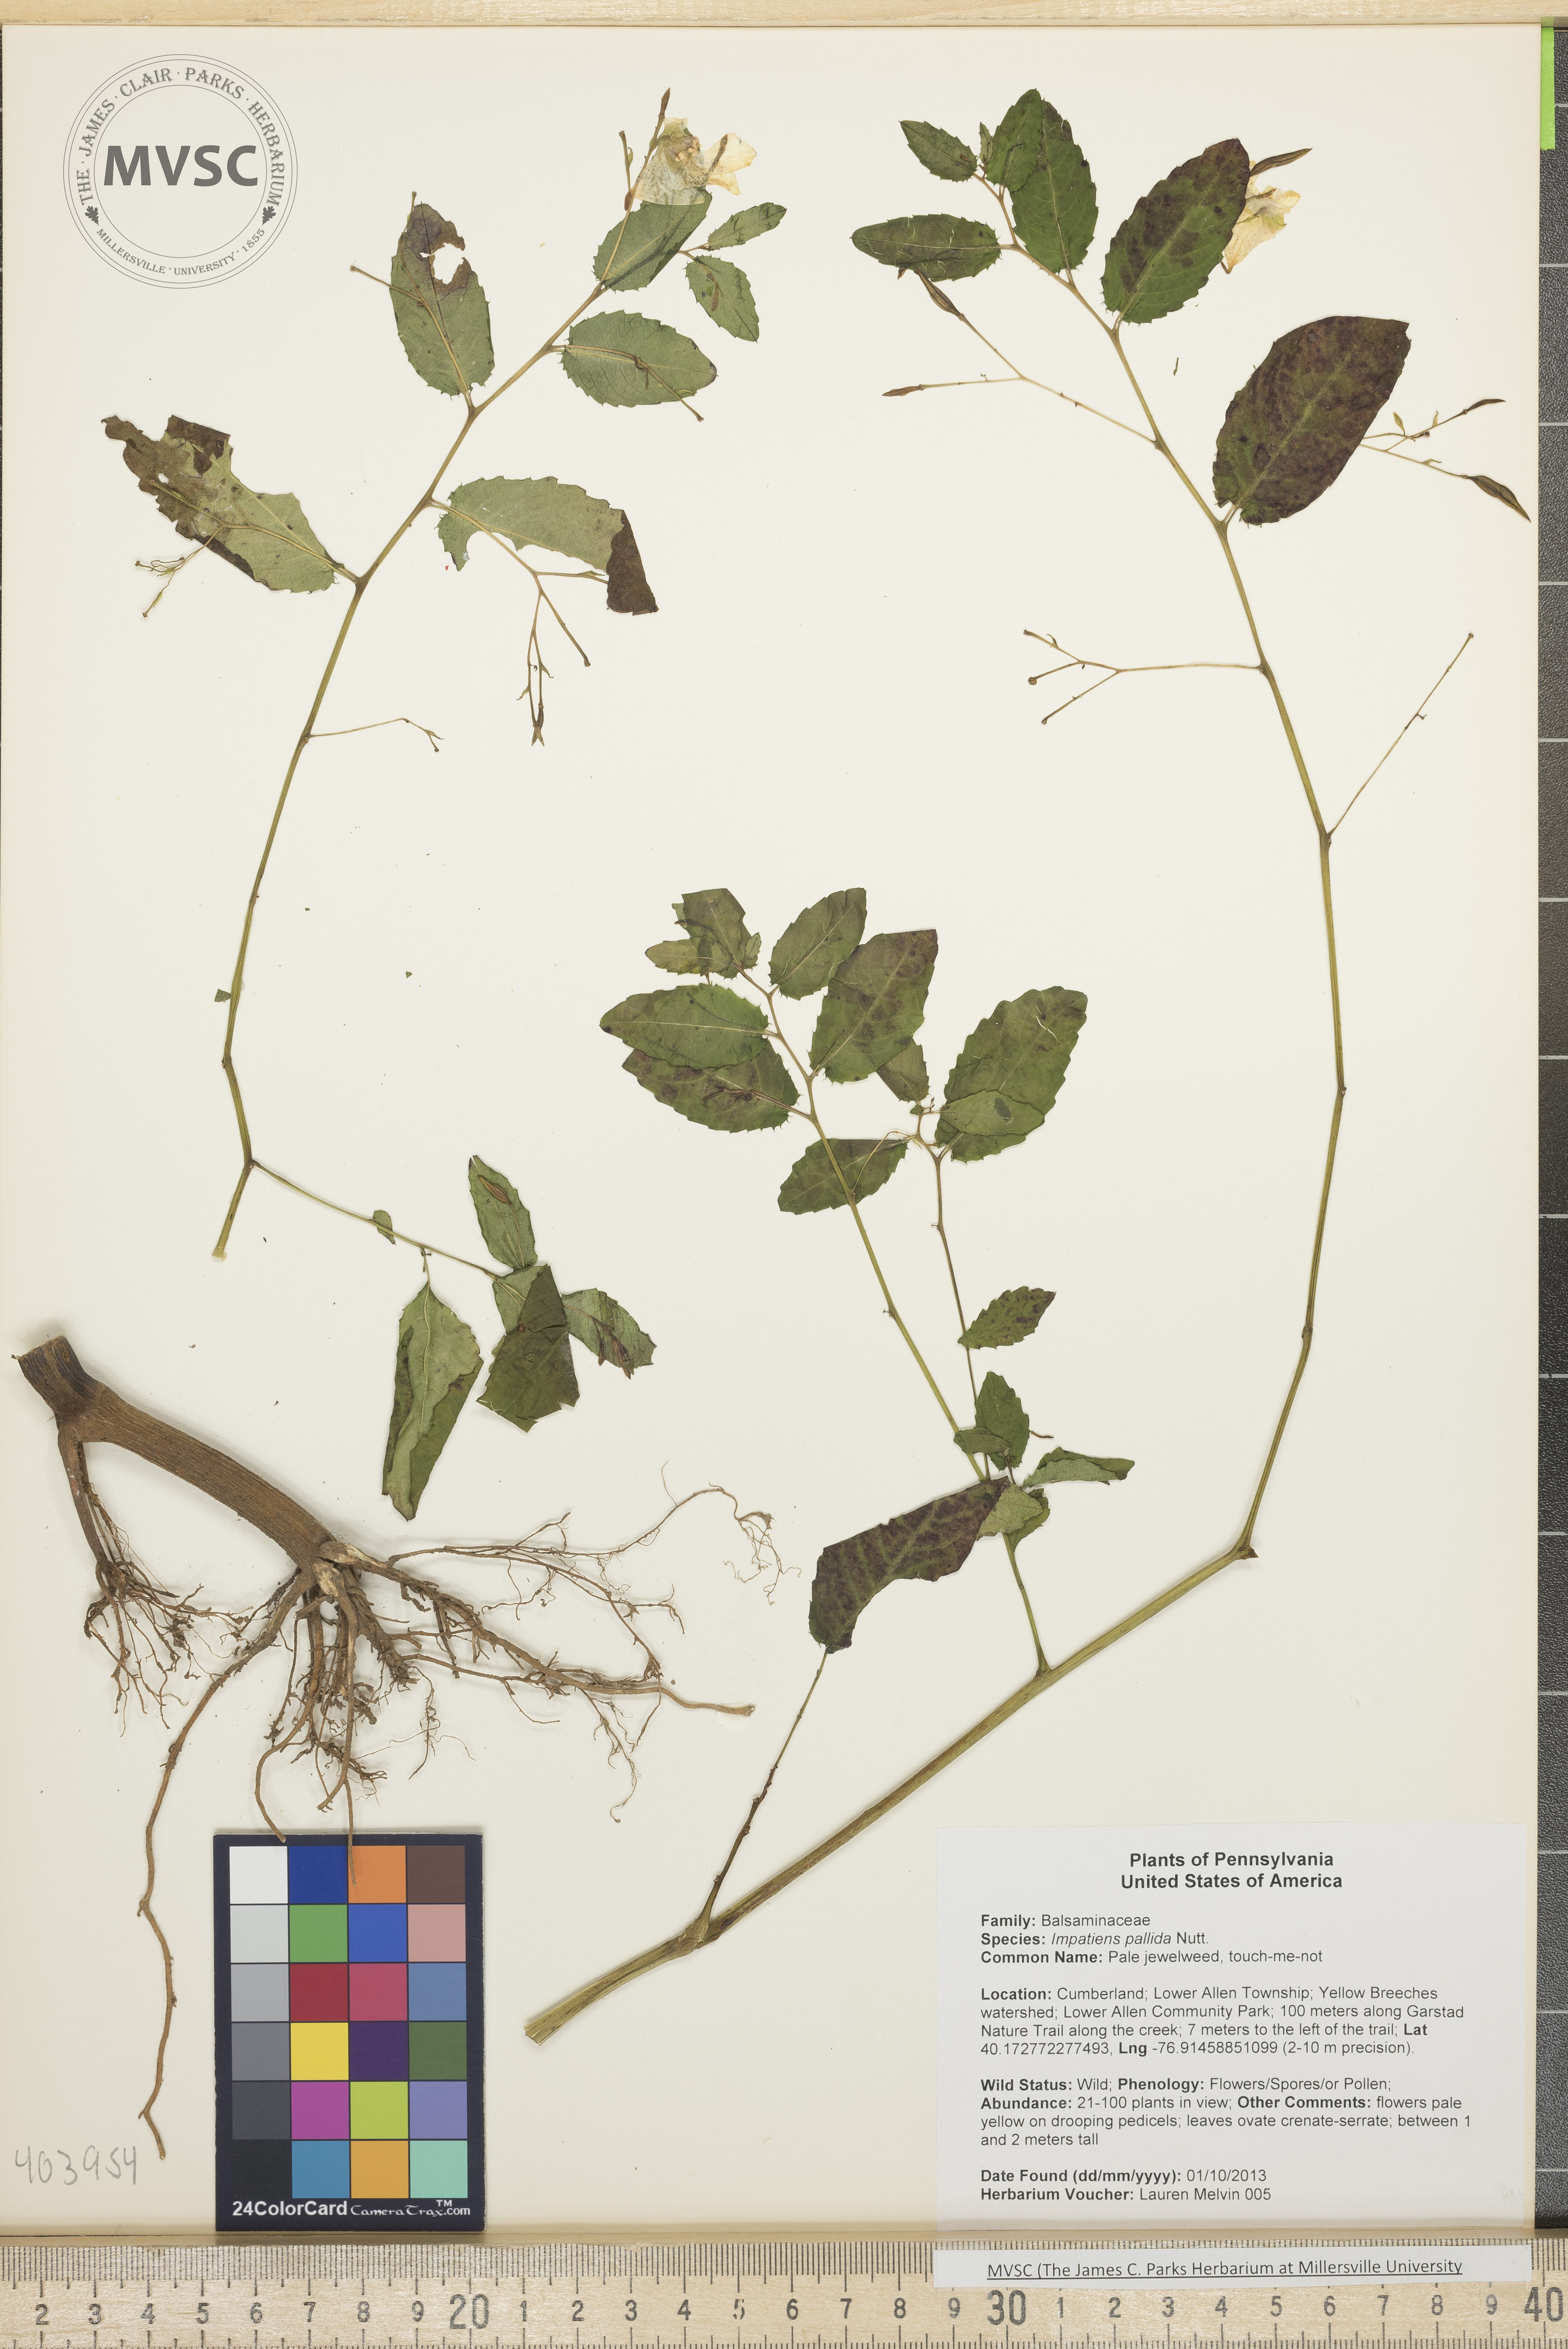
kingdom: Plantae
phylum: Tracheophyta
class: Magnoliopsida
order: Ericales
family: Balsaminaceae
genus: Impatiens
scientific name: Impatiens pallida
